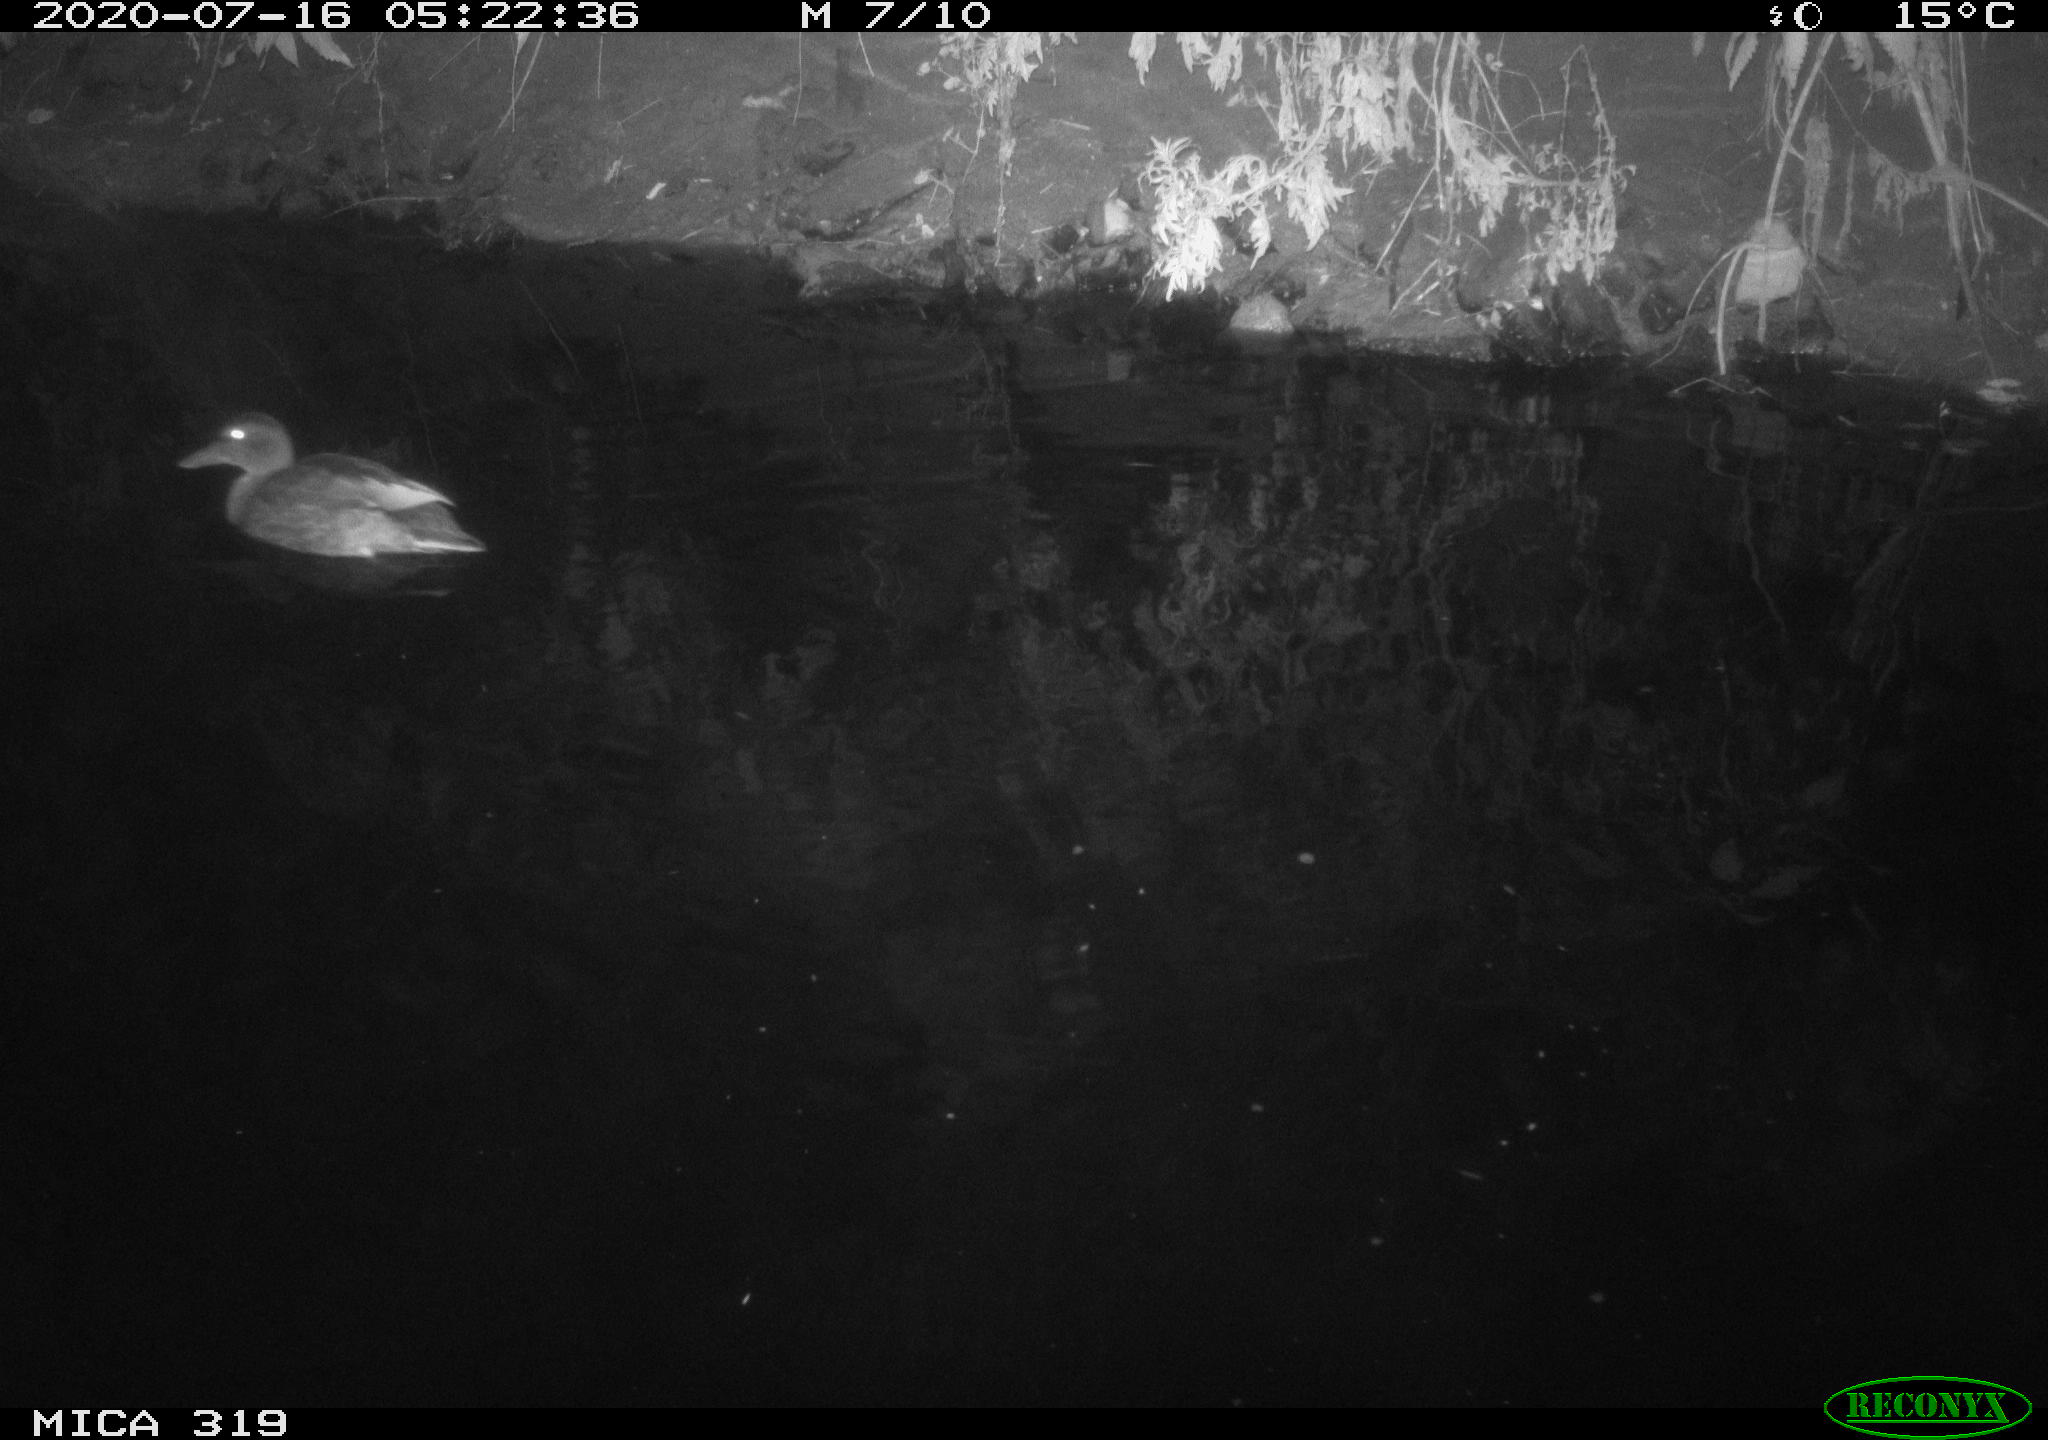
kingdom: Animalia
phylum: Chordata
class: Aves
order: Anseriformes
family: Anatidae
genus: Anas
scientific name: Anas platyrhynchos
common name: Mallard
